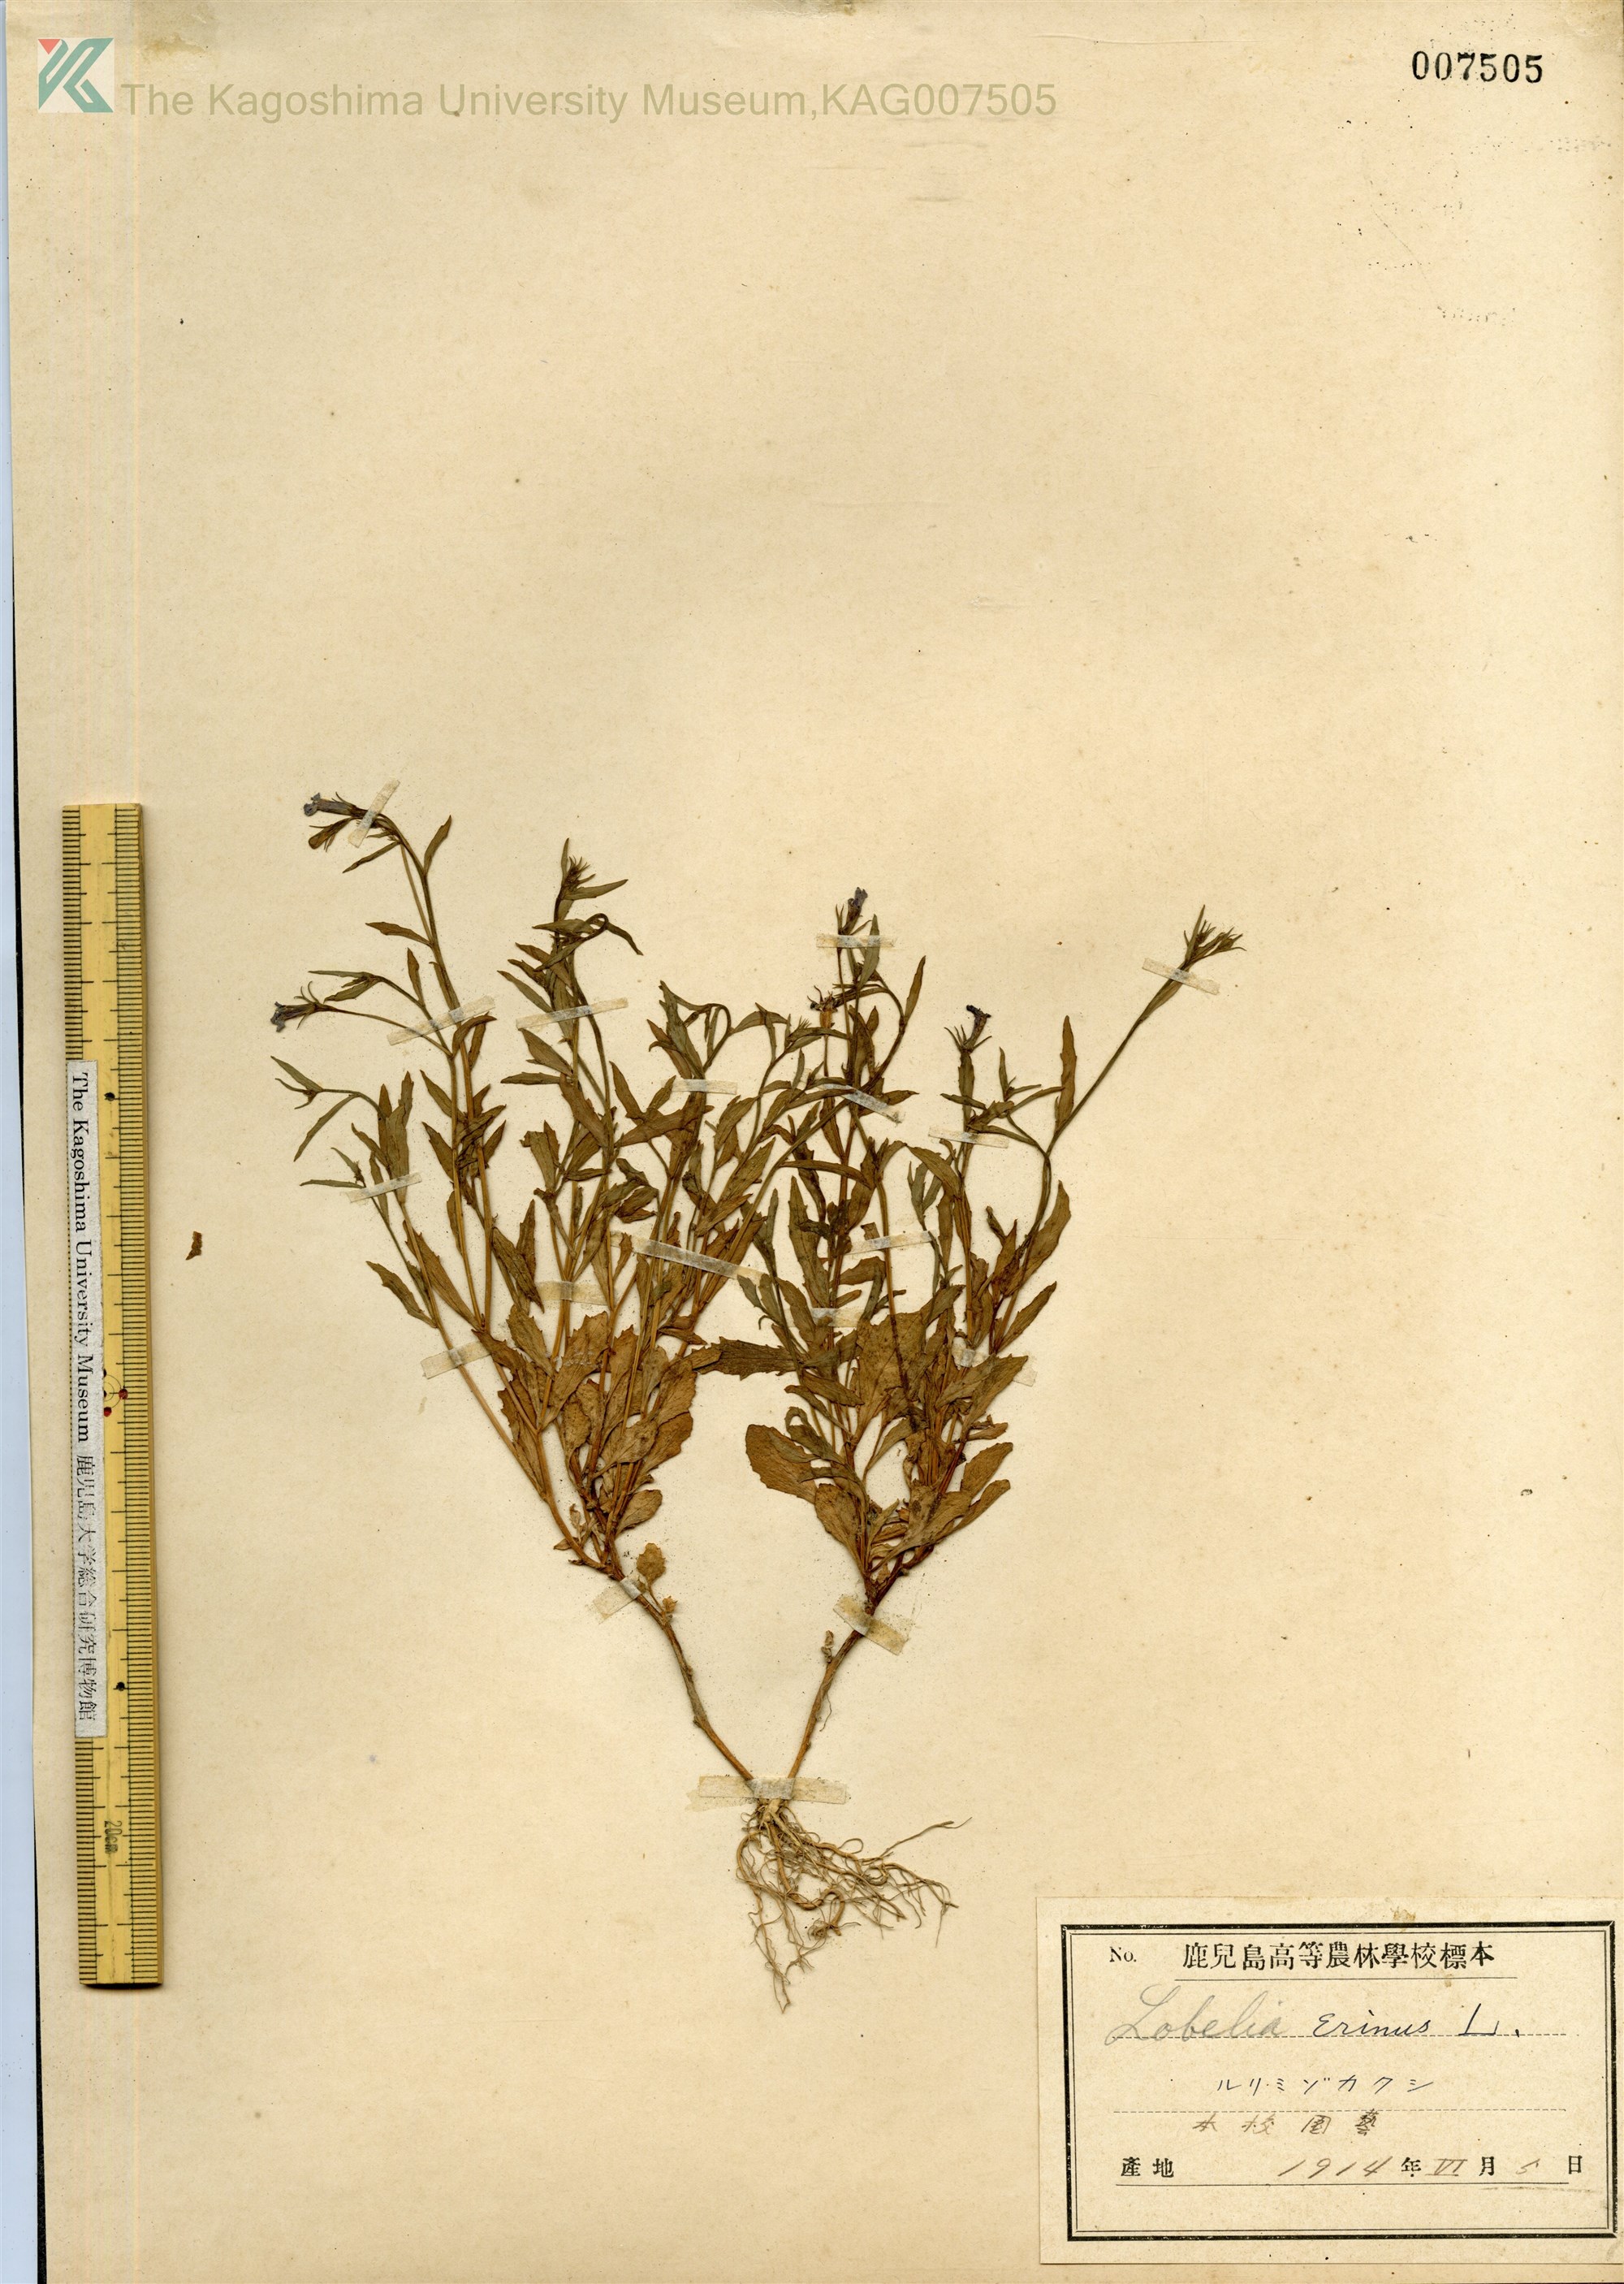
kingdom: Plantae
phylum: Tracheophyta
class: Magnoliopsida
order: Asterales
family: Campanulaceae
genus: Lobelia
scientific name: Lobelia erinus
